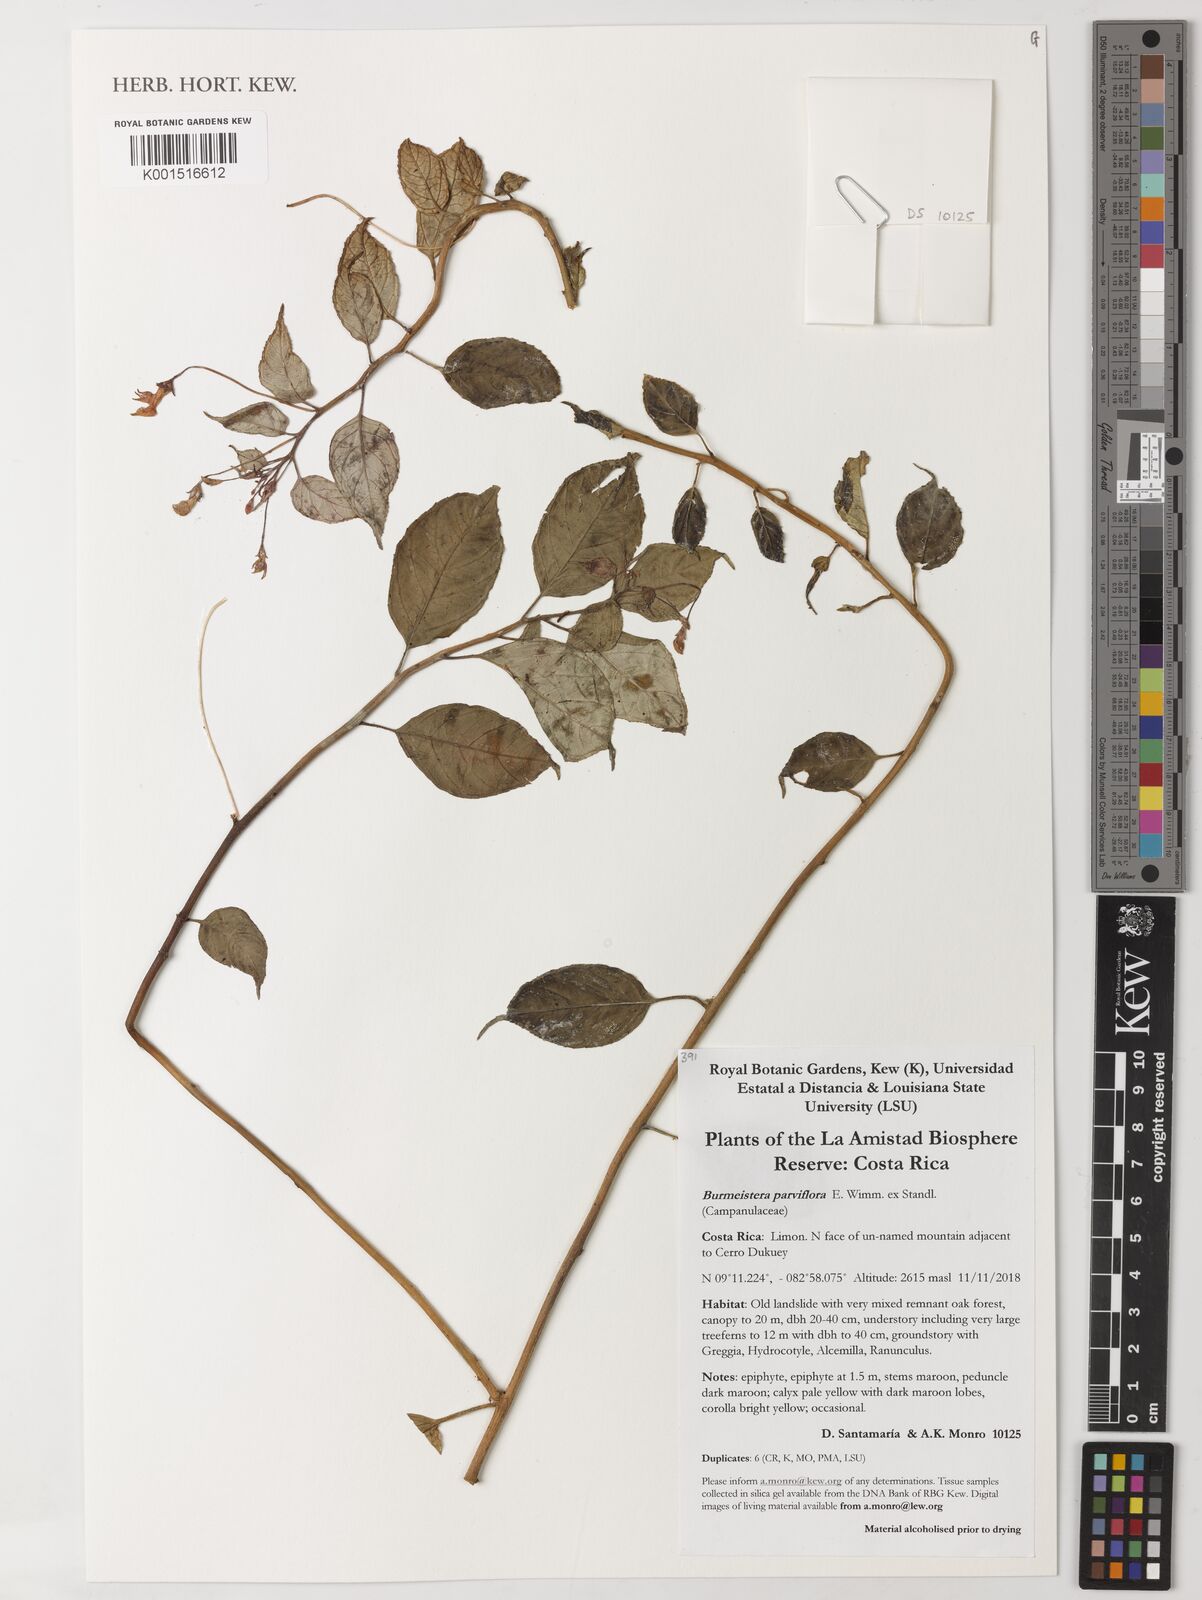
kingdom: Plantae
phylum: Tracheophyta
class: Magnoliopsida
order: Asterales
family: Campanulaceae
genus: Burmeistera
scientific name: Burmeistera parviflora
